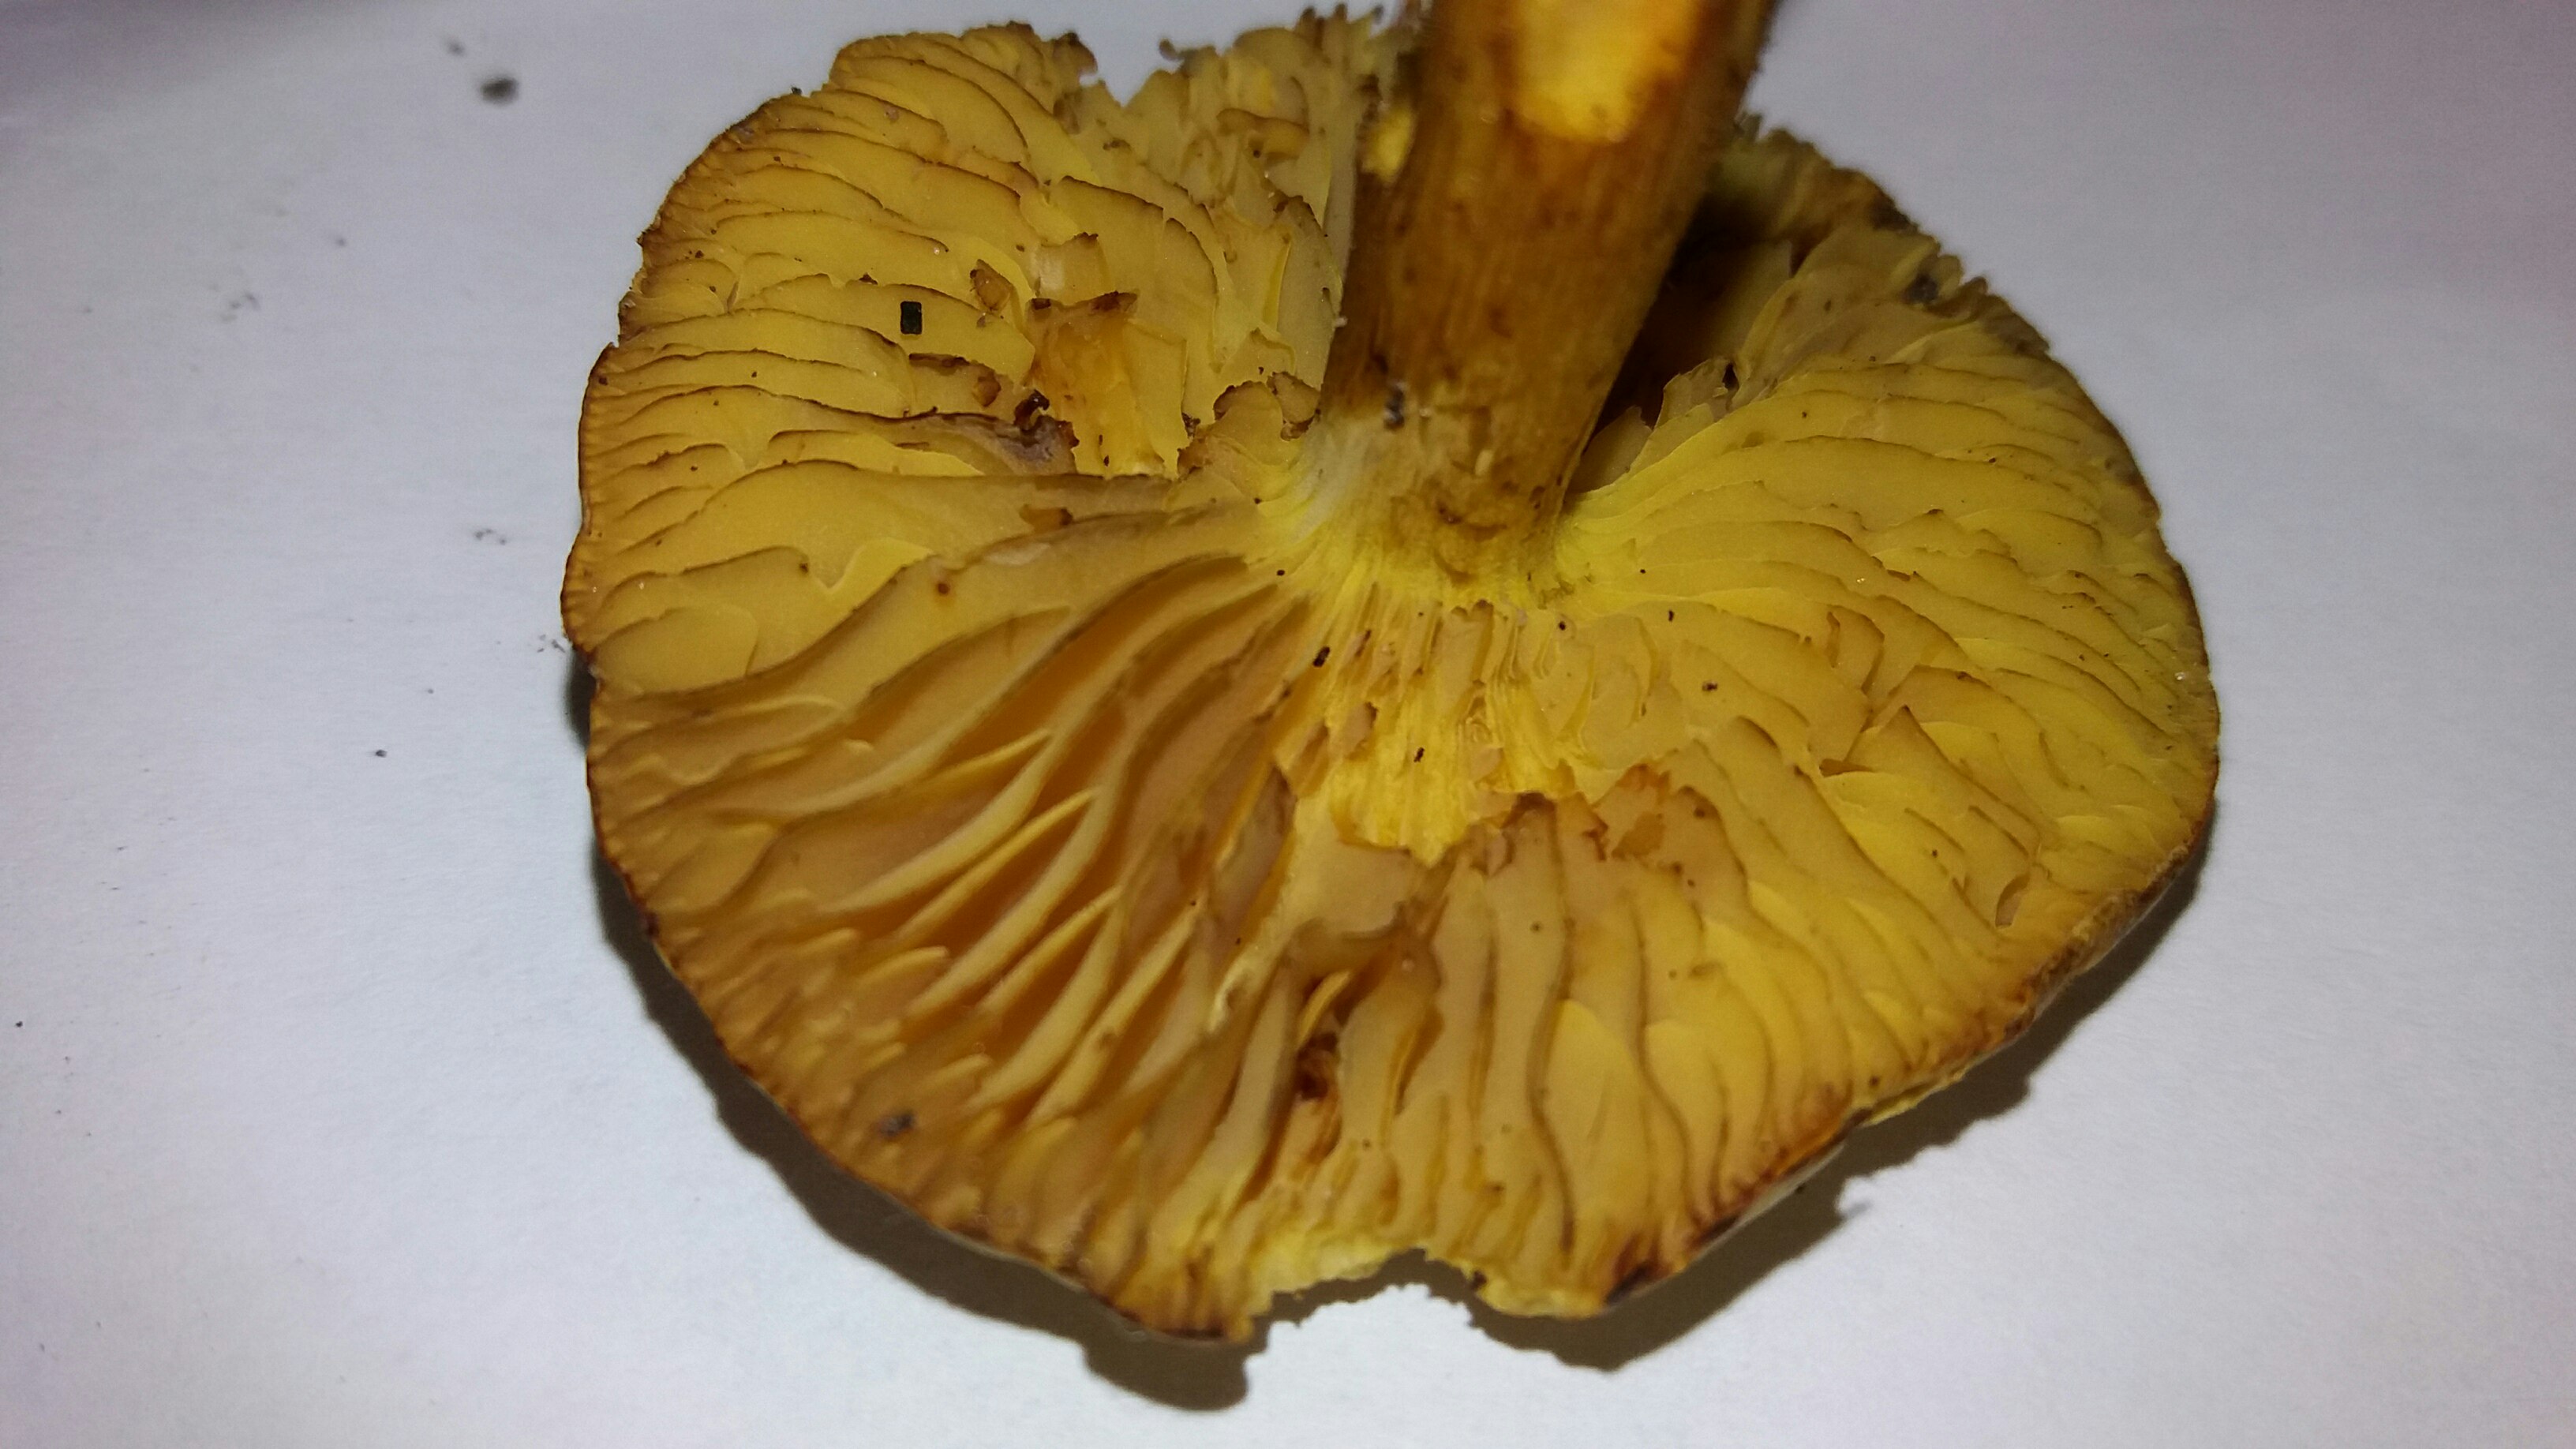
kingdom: Fungi
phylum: Basidiomycota
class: Agaricomycetes
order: Agaricales
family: Tricholomataceae
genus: Tricholoma
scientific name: Tricholoma sulphureum
